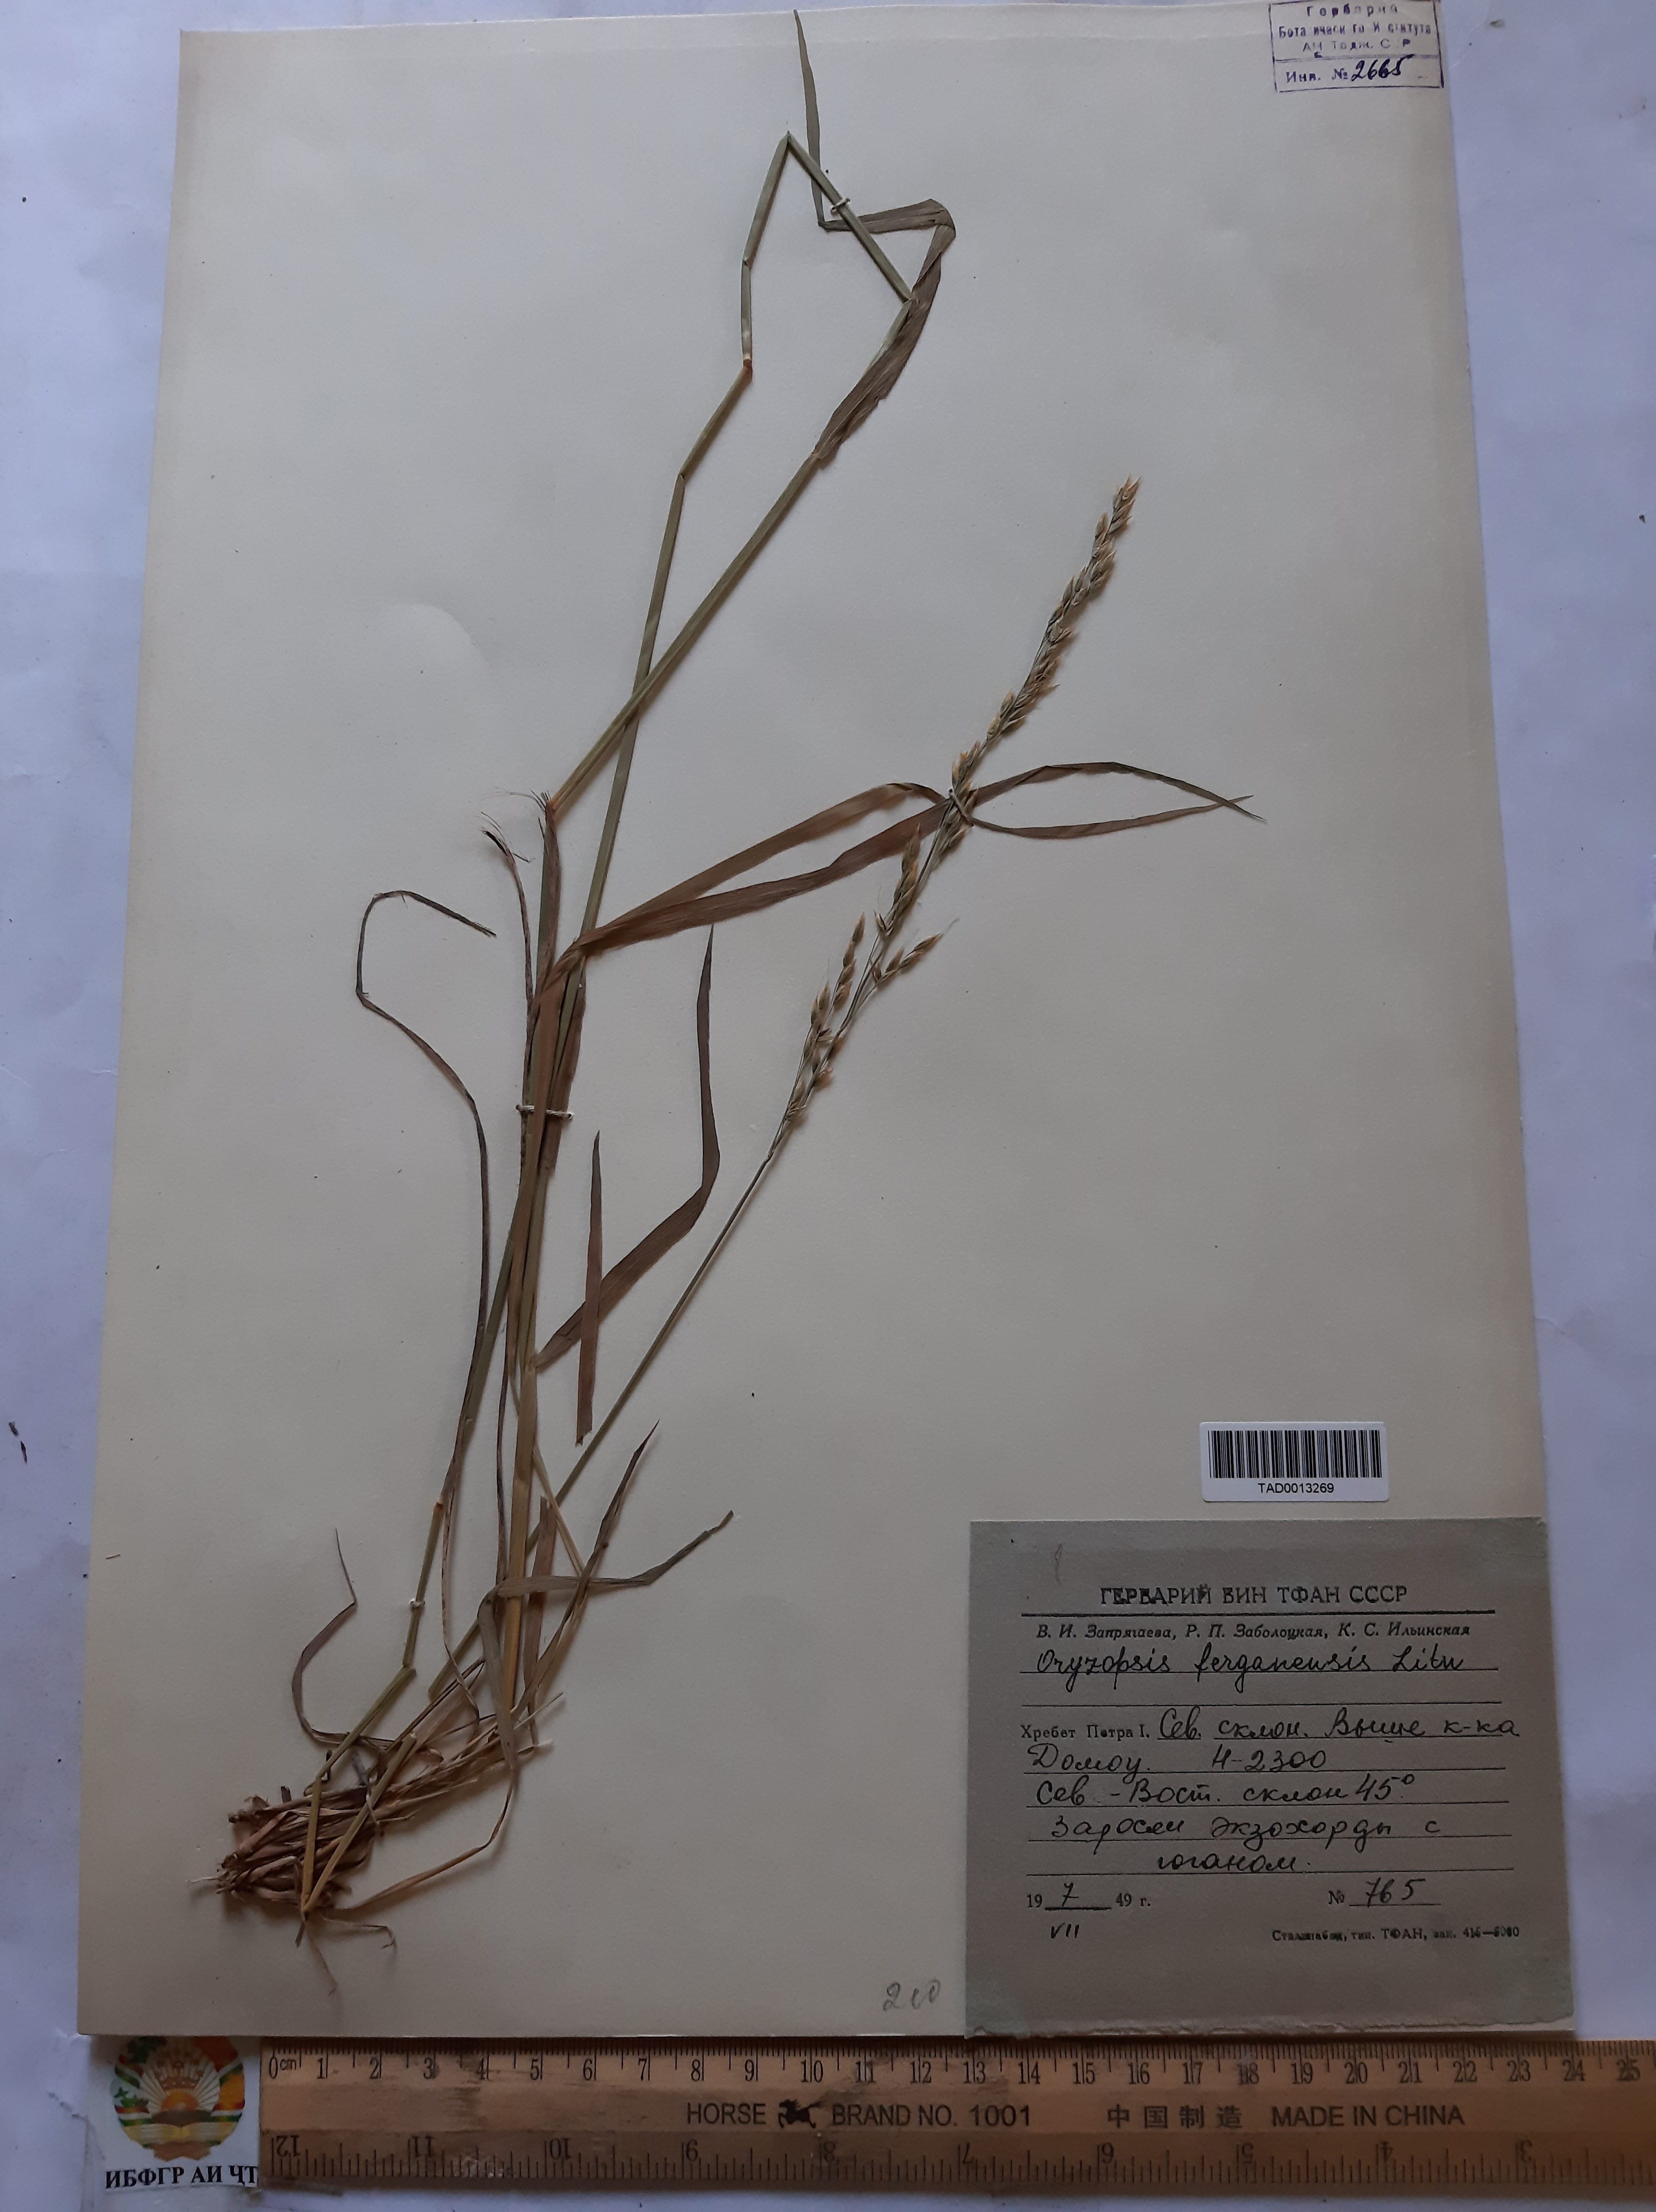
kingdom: Plantae
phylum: Tracheophyta
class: Liliopsida
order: Poales
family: Poaceae
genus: Piptatherum
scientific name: Piptatherum ferganense
